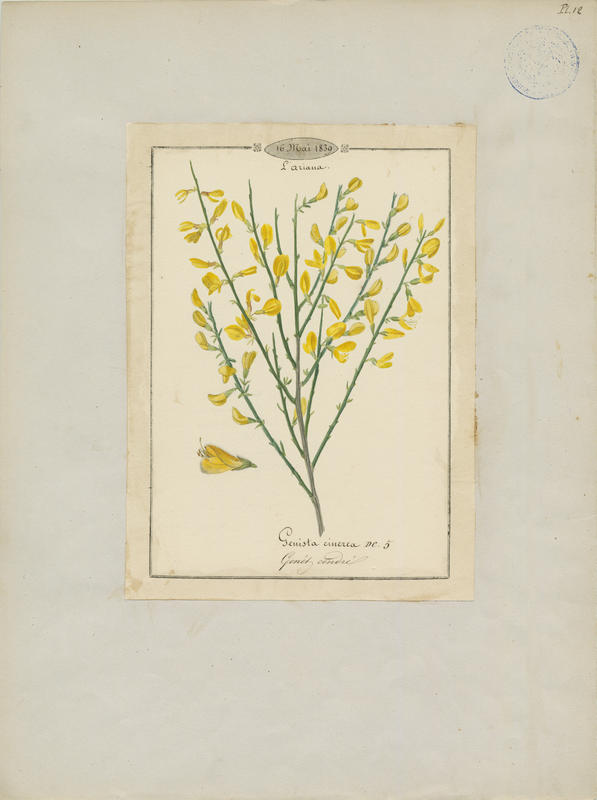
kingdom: Plantae
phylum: Tracheophyta
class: Magnoliopsida
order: Fabales
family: Fabaceae
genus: Genista
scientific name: Genista cinerea
